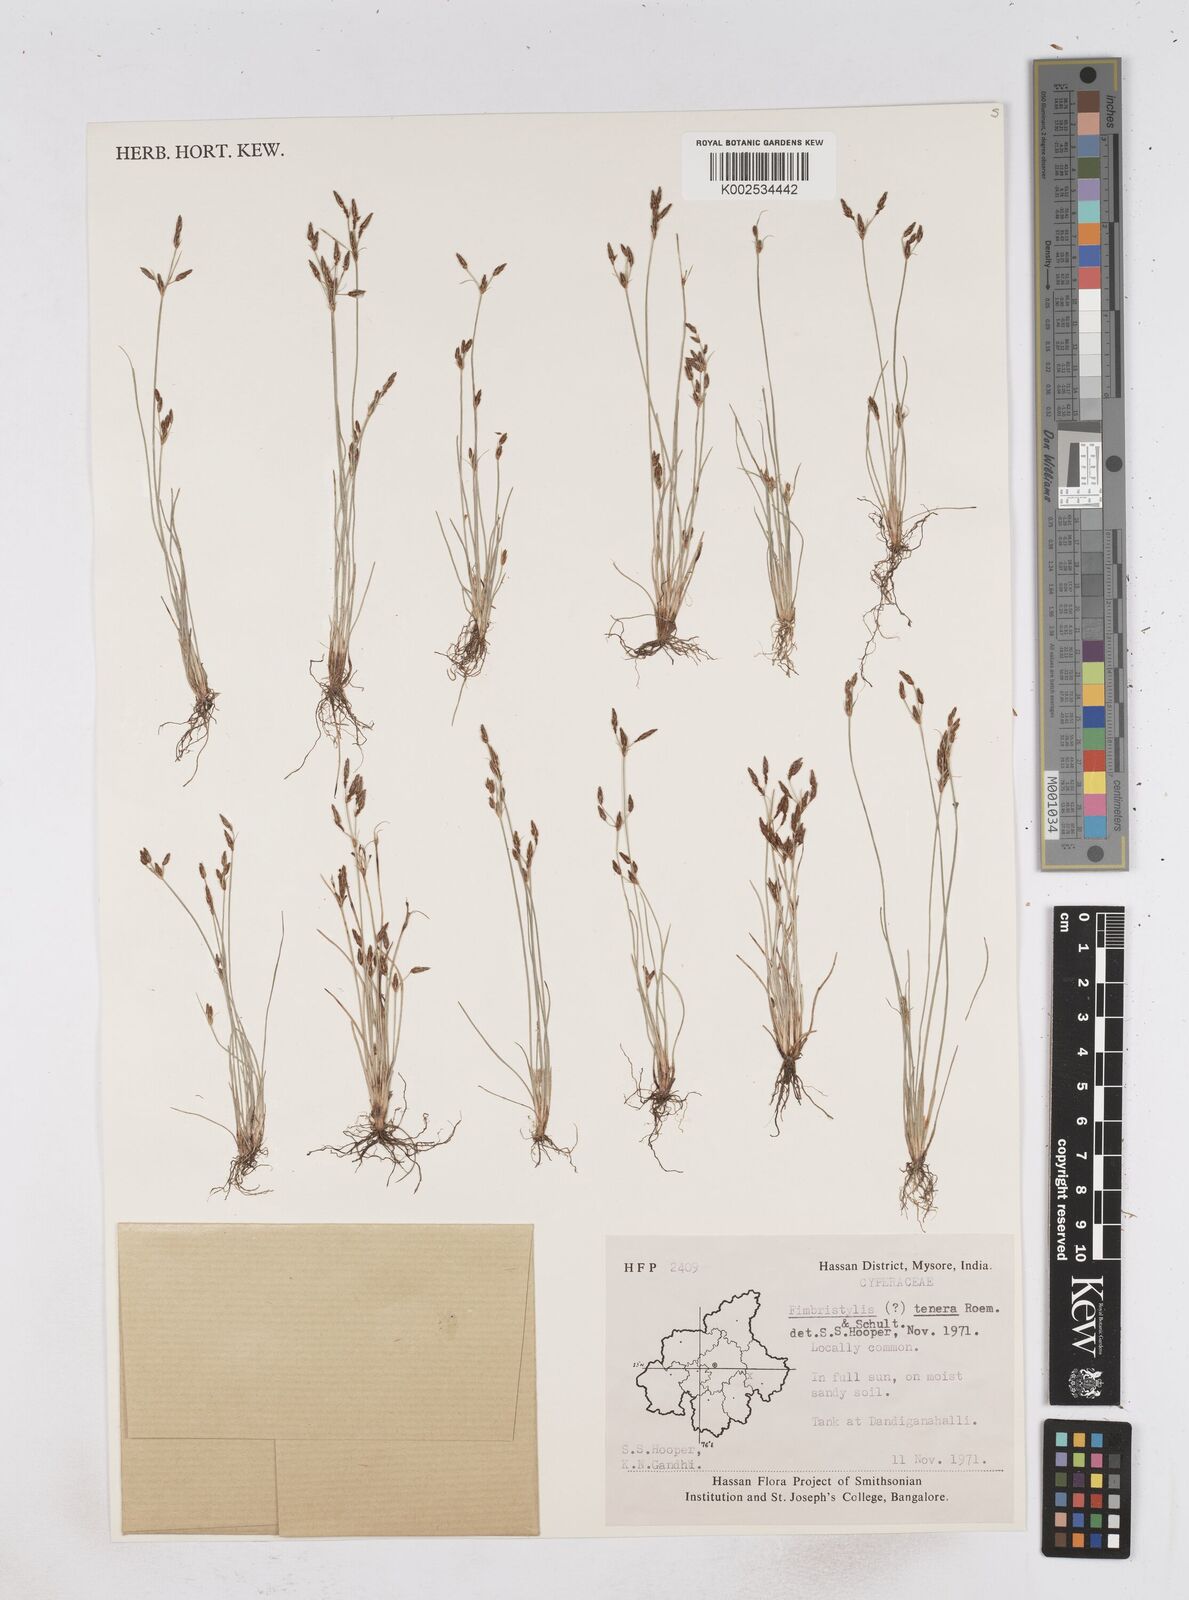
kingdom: Plantae
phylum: Tracheophyta
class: Liliopsida
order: Poales
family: Cyperaceae
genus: Fimbristylis
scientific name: Fimbristylis tenera
